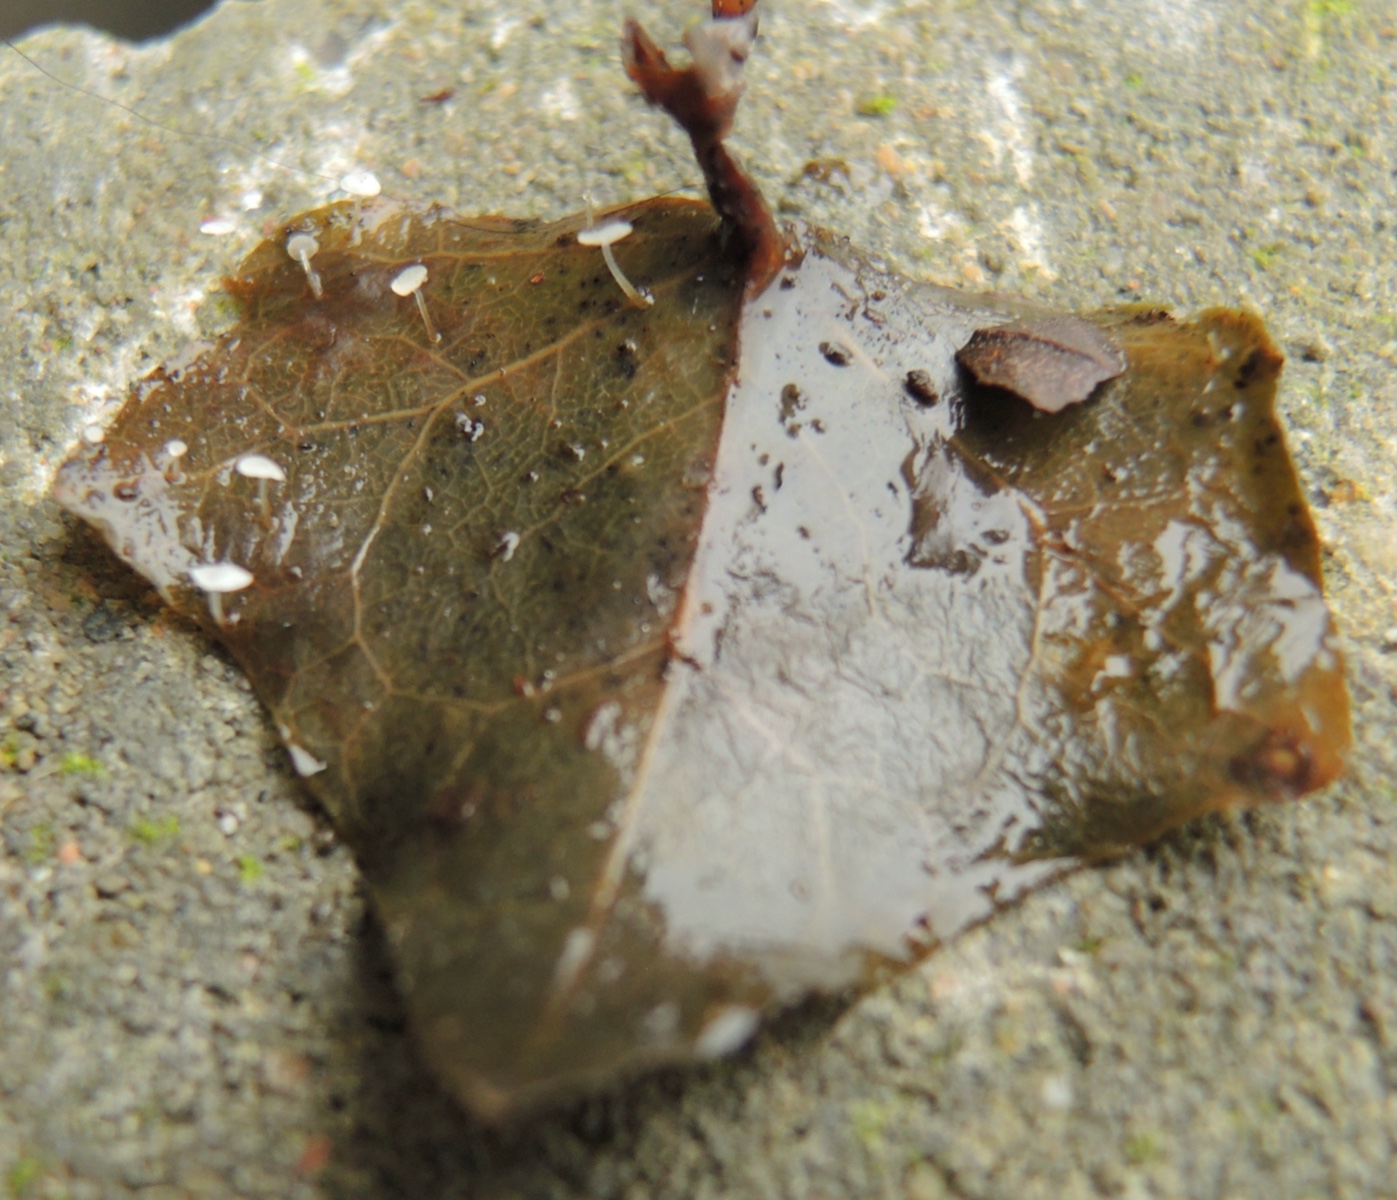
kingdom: Fungi
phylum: Basidiomycota
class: Agaricomycetes
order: Agaricales
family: Marasmiaceae
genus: Marasmius
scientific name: Marasmius epiphylloides
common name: vedbend-bruskhat
